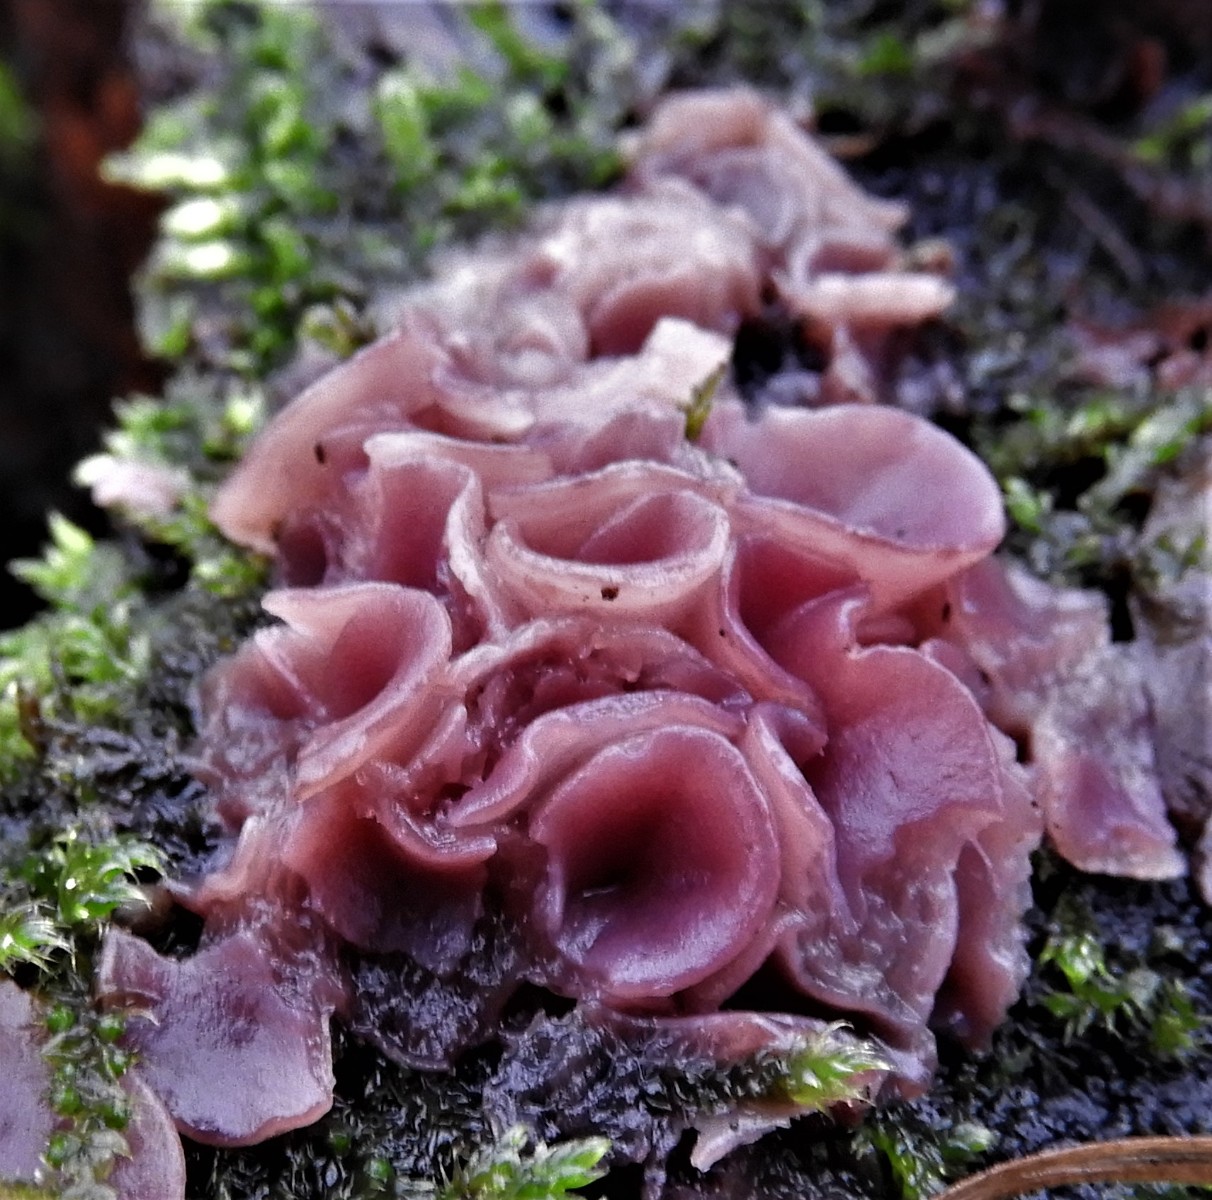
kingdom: Fungi
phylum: Ascomycota
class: Leotiomycetes
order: Helotiales
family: Gelatinodiscaceae
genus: Ascocoryne
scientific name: Ascocoryne cylichnium
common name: stor sejskive
